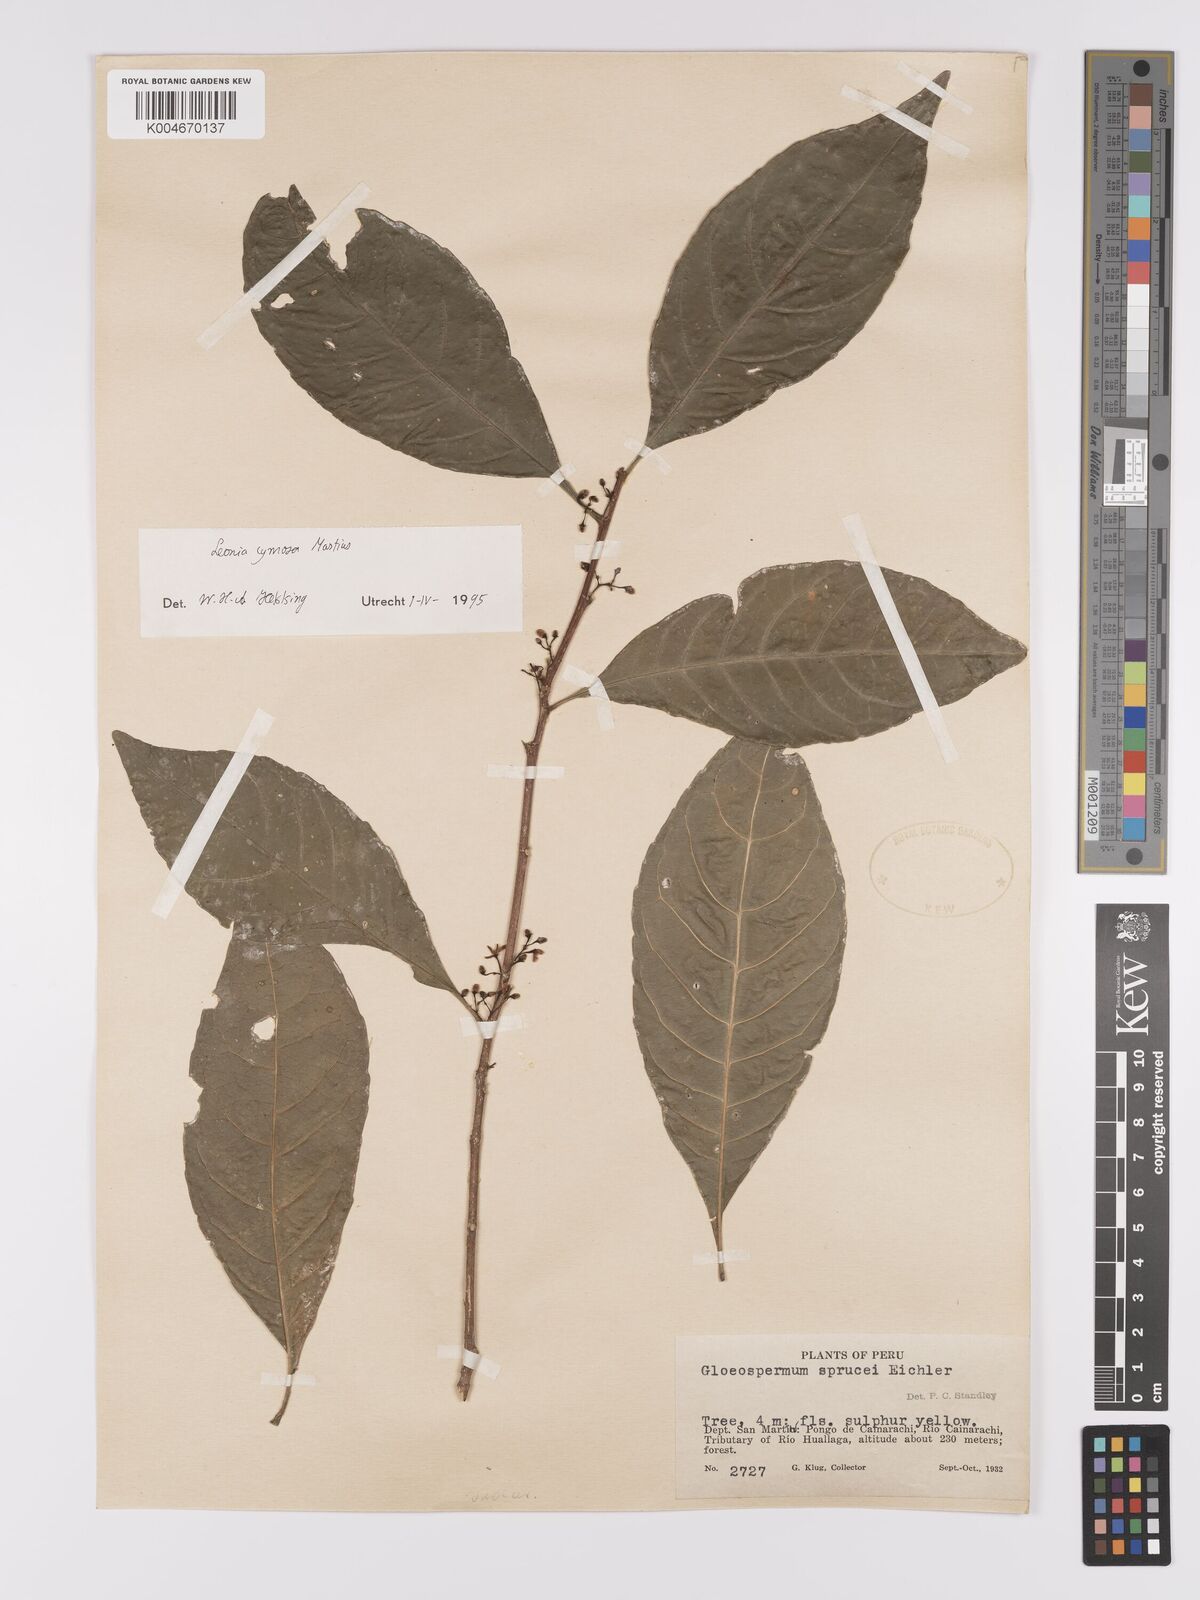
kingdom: Plantae
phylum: Tracheophyta
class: Magnoliopsida
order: Malpighiales
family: Violaceae
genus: Leonia
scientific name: Leonia cymosa
